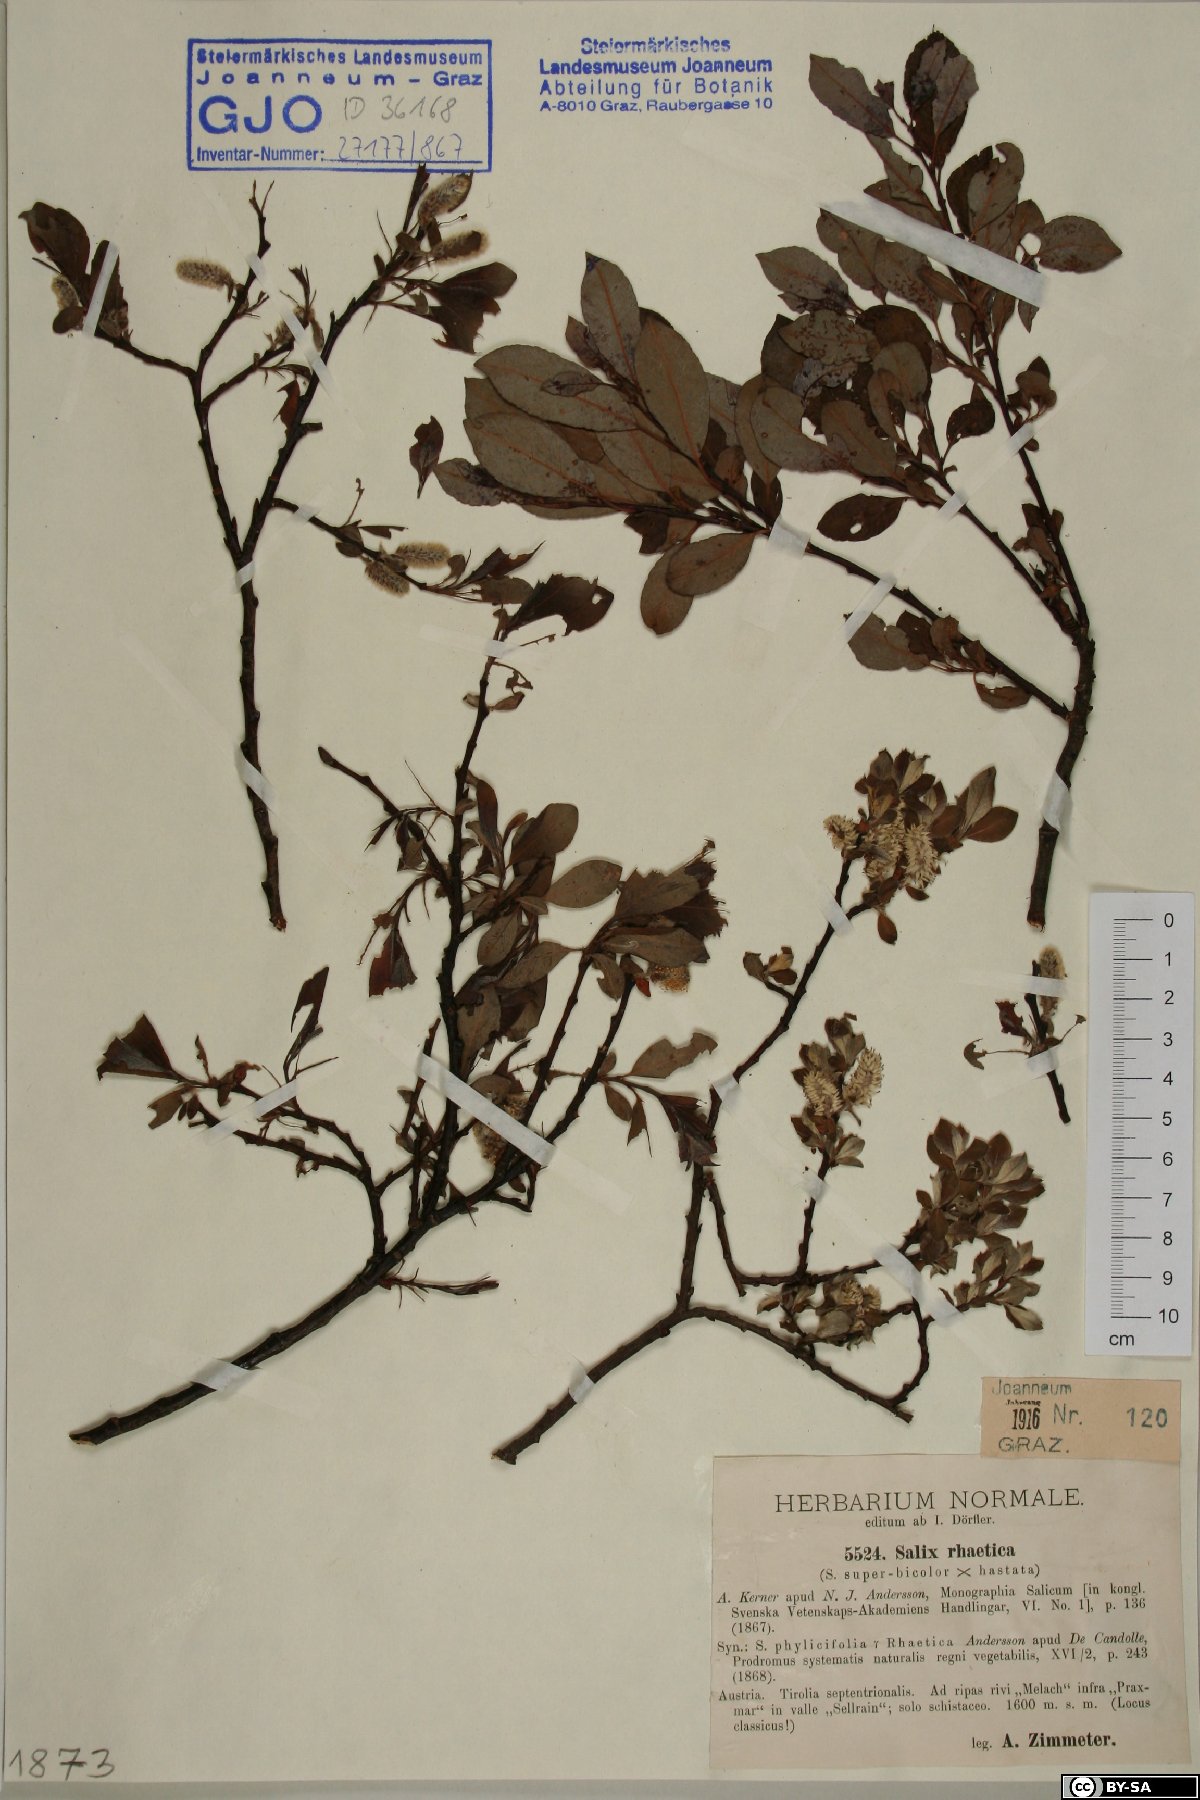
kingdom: Plantae
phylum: Tracheophyta
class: Magnoliopsida
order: Malpighiales
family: Salicaceae
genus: Salix
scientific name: Salix hegetschweileri
